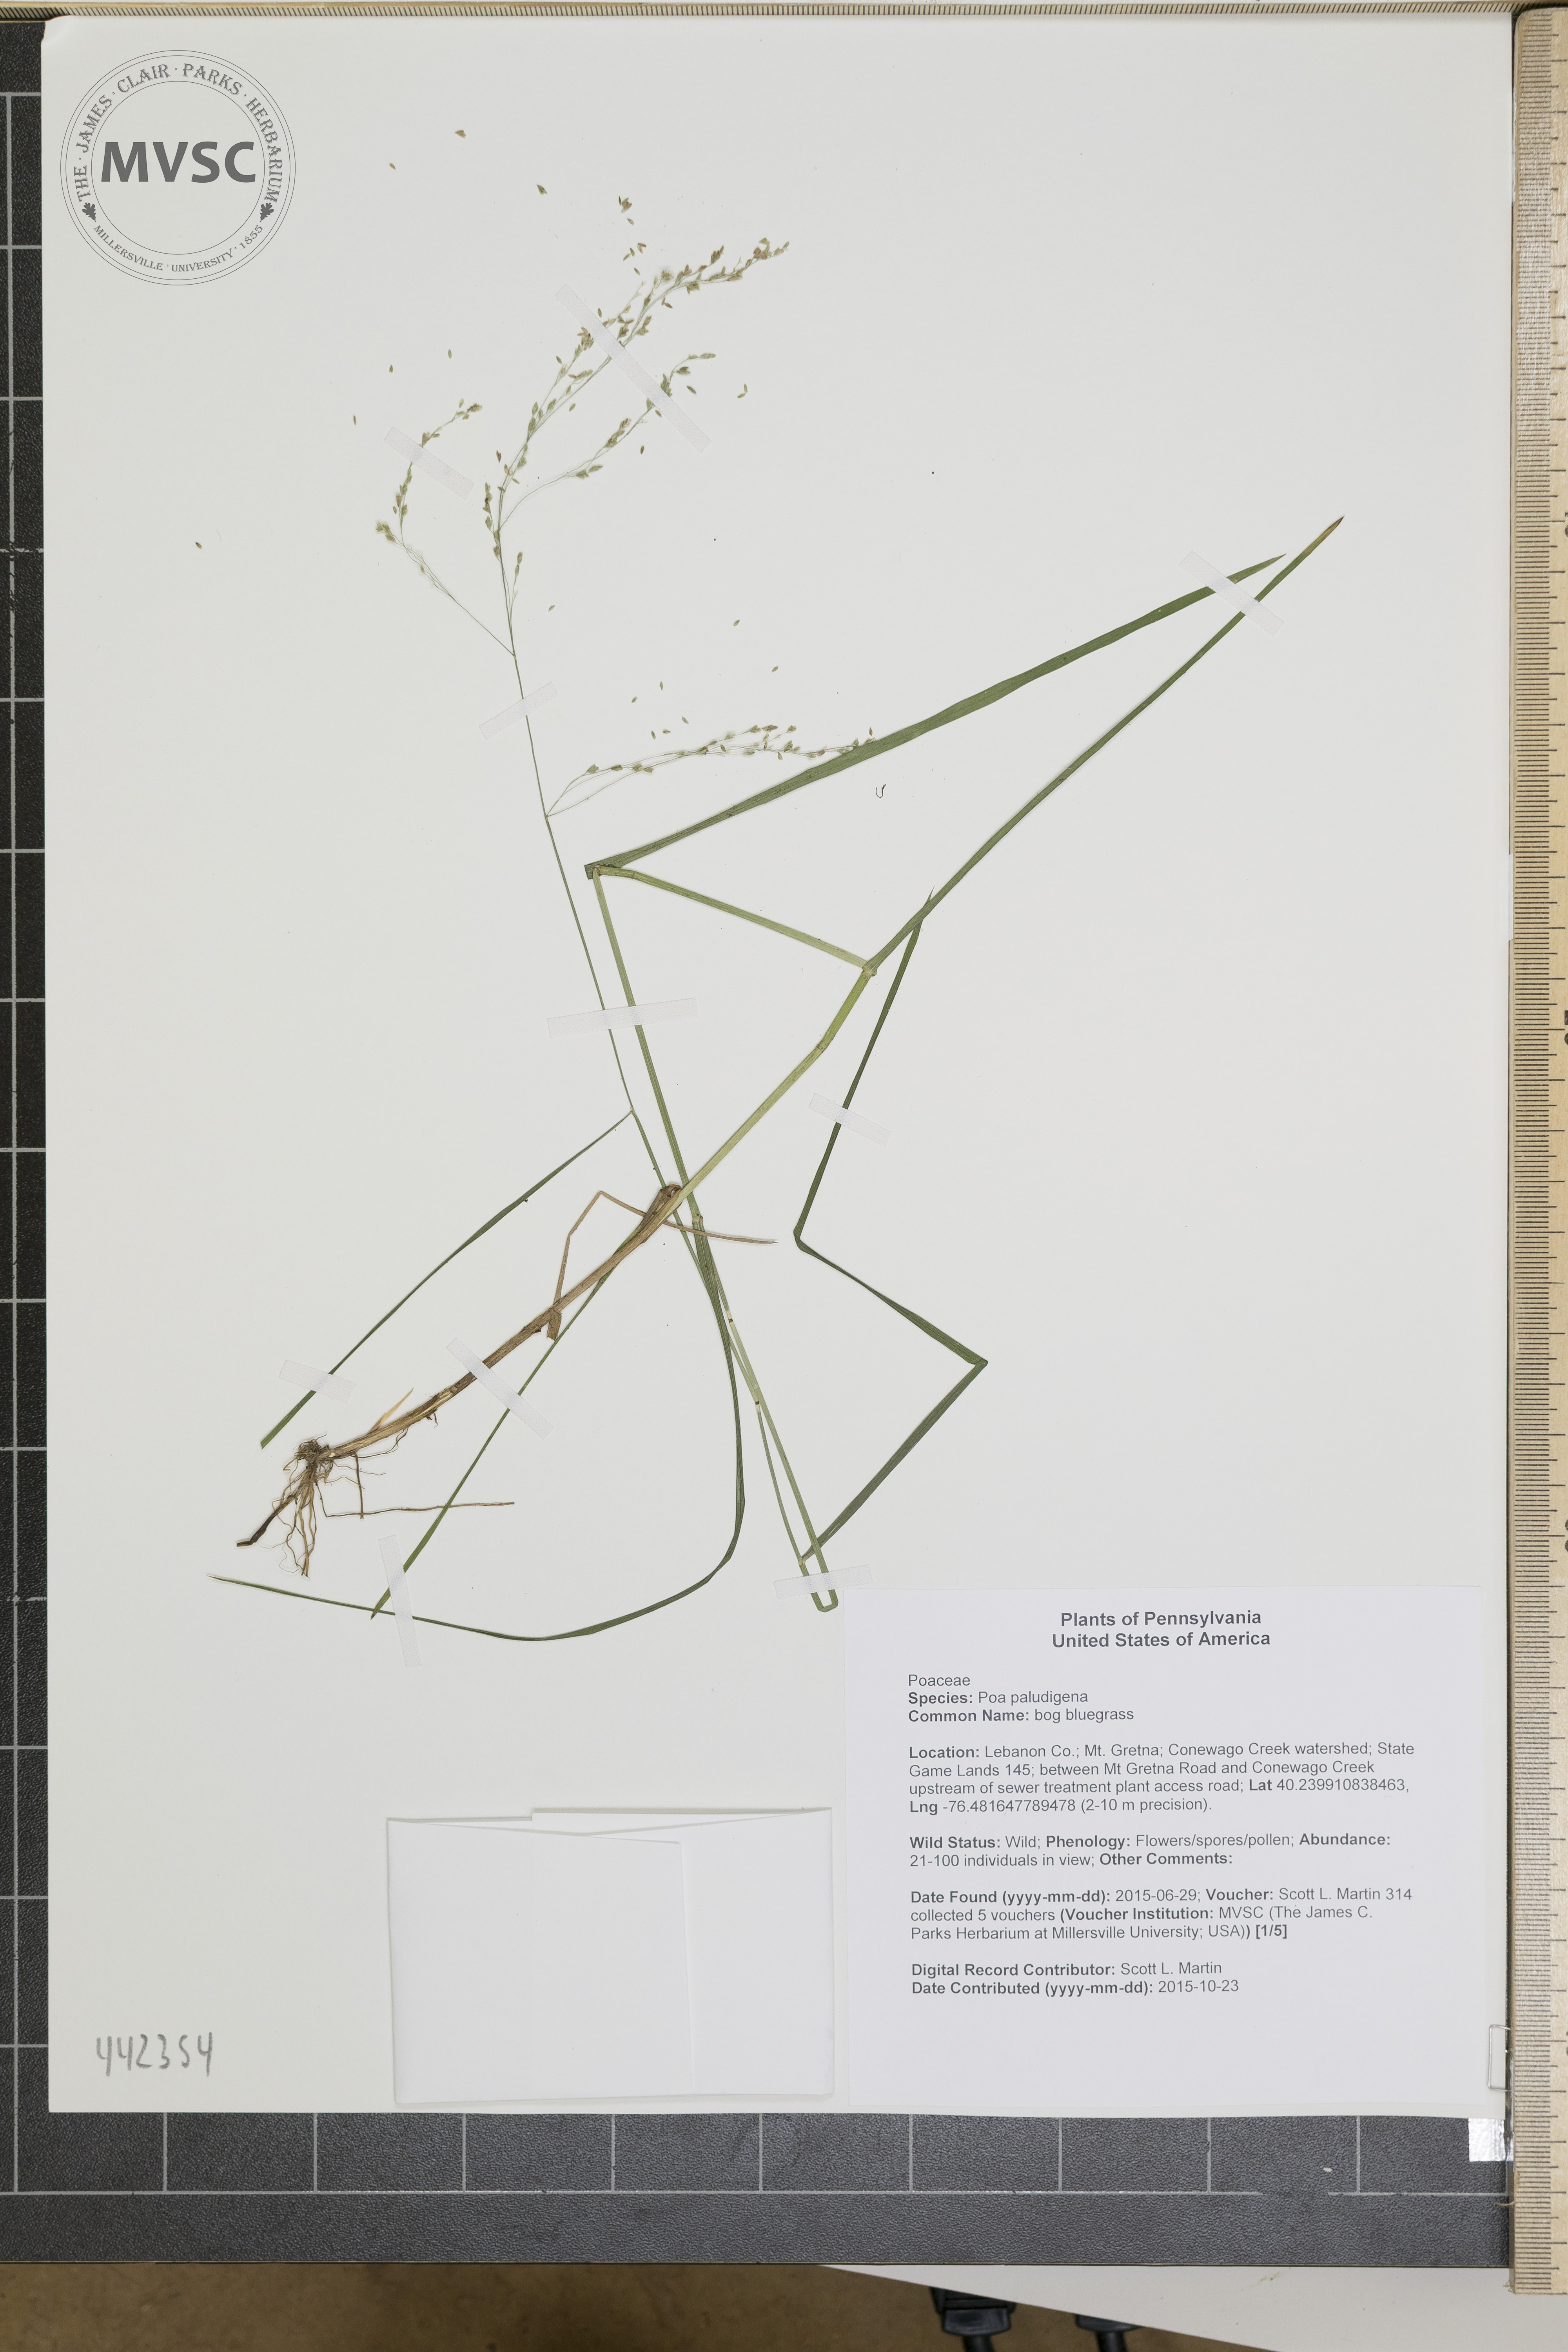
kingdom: Plantae
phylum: Tracheophyta
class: Liliopsida
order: Poales
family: Poaceae
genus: Glyceria
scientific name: Glyceria striata
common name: Fowl manna grass
